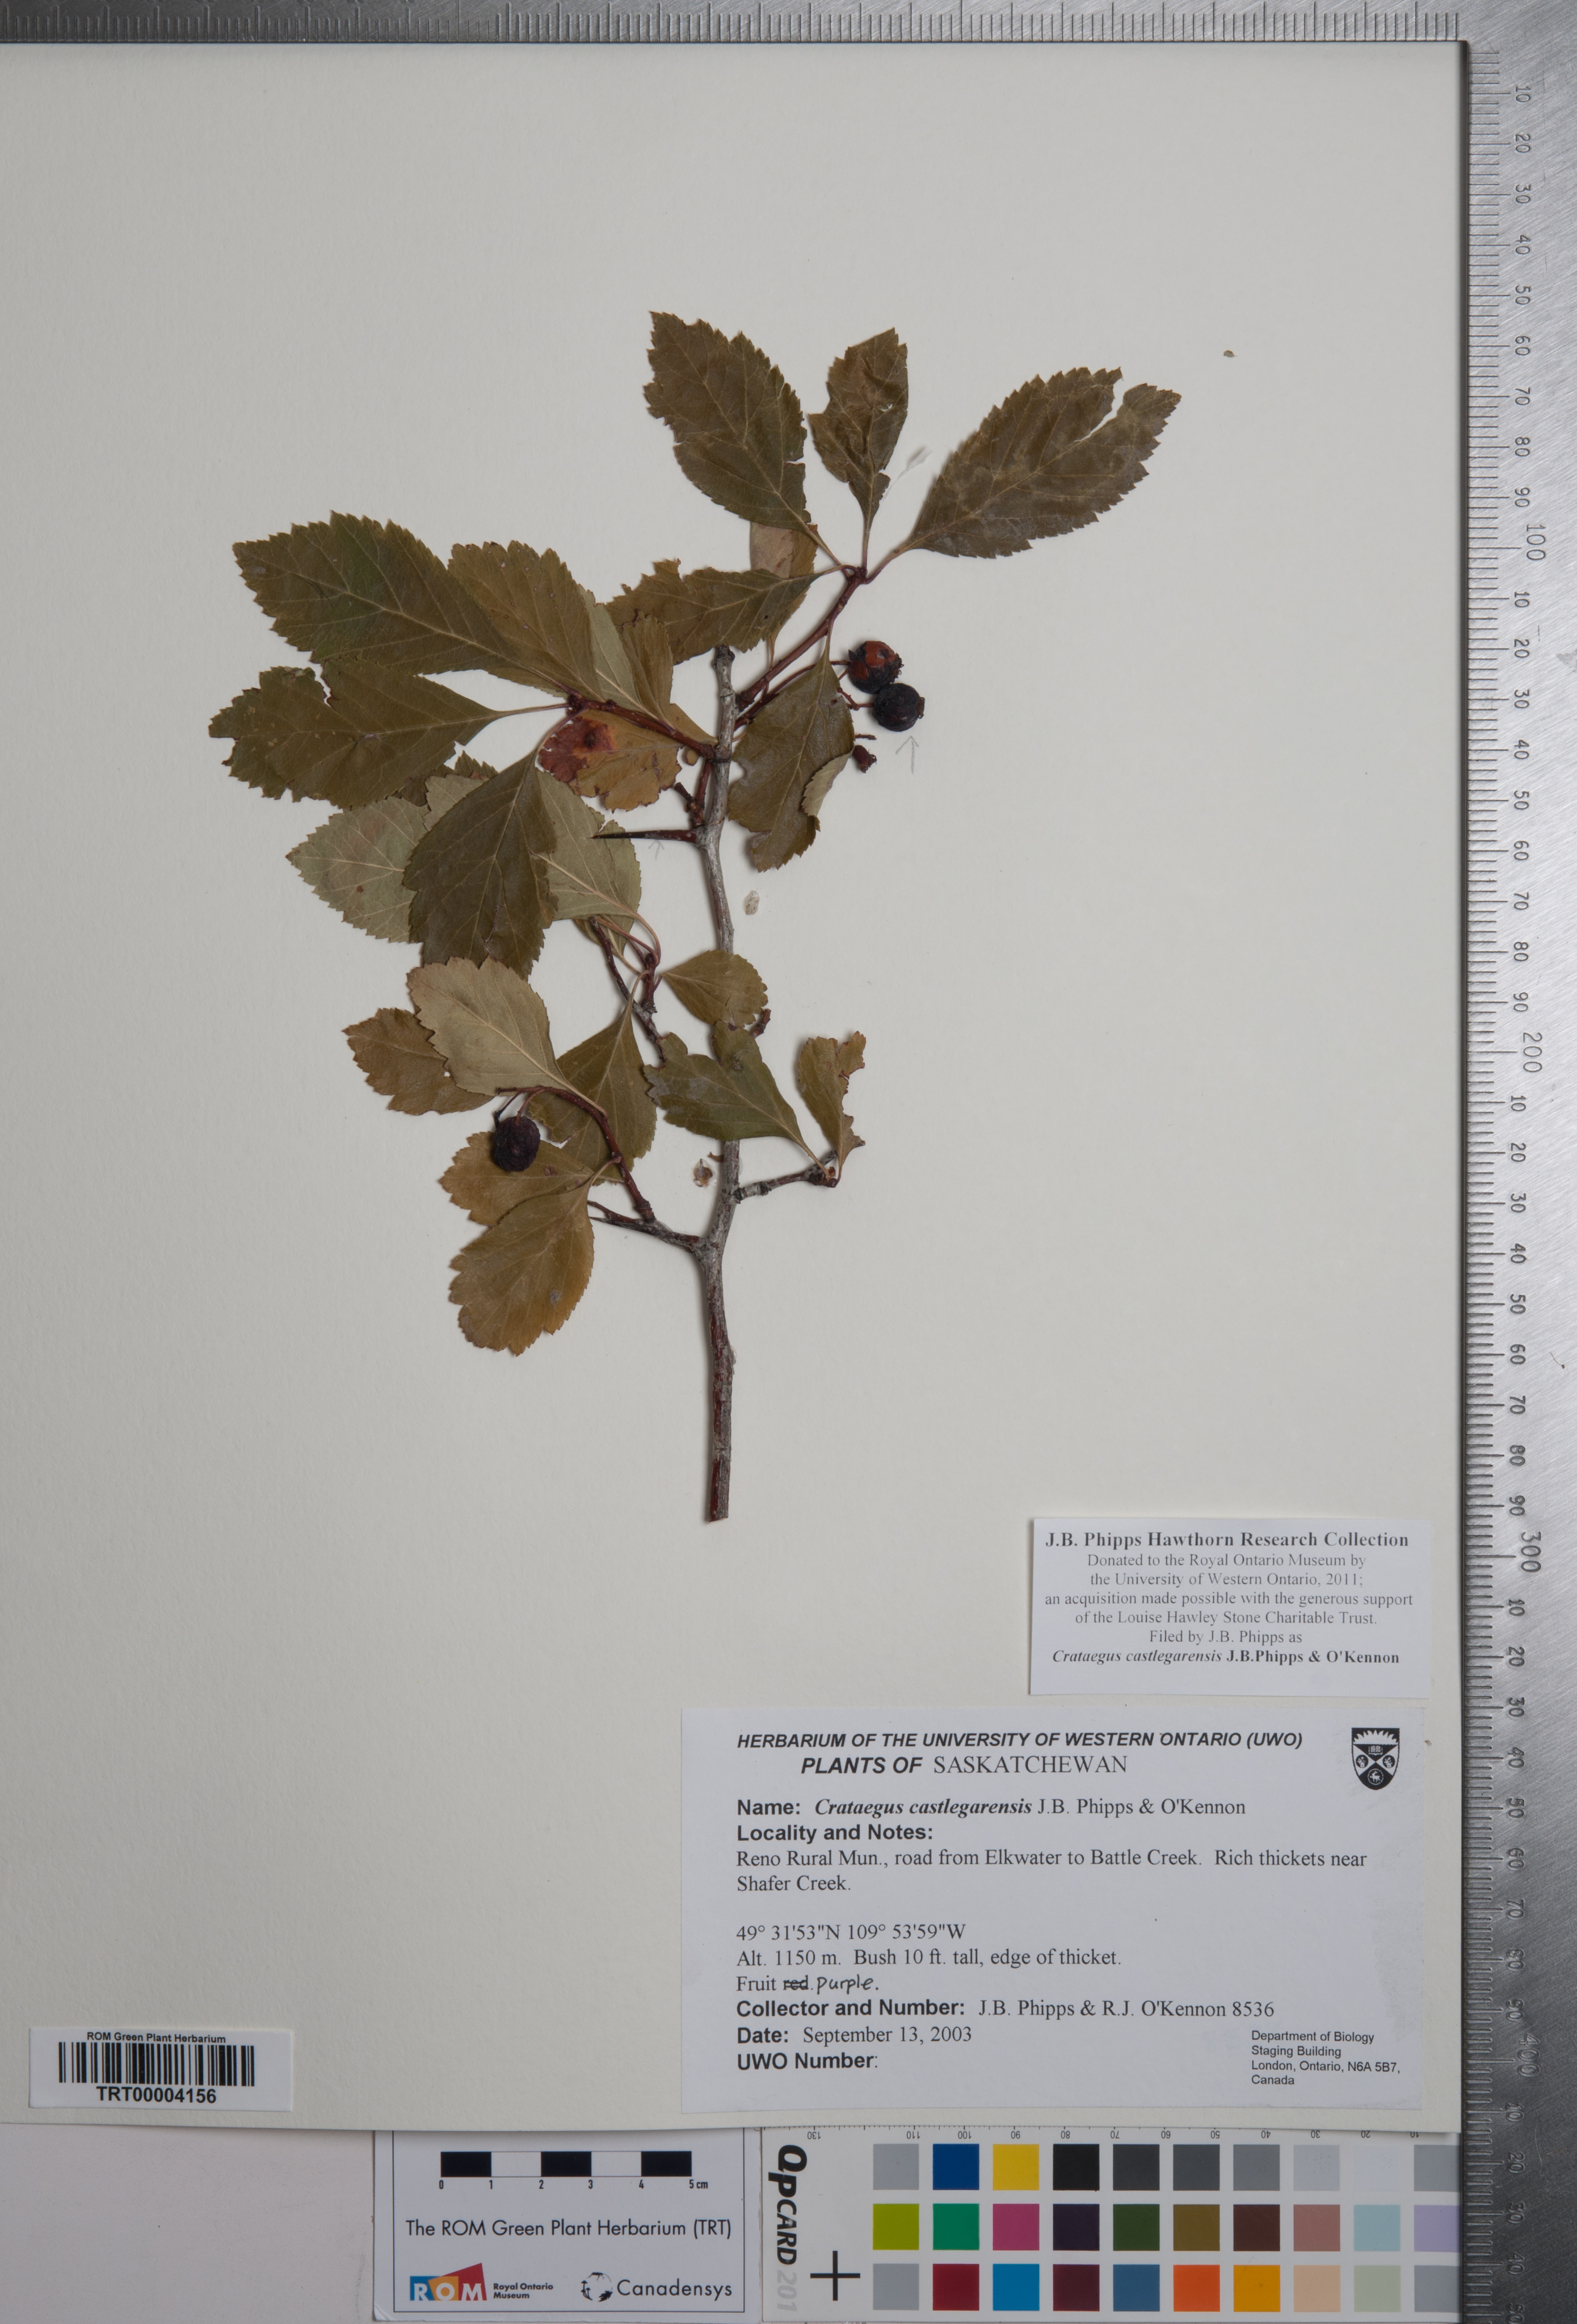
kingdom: Plantae
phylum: Tracheophyta
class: Magnoliopsida
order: Rosales
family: Rosaceae
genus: Crataegus
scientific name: Crataegus castlegarensis
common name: Castlegar hawthorn
